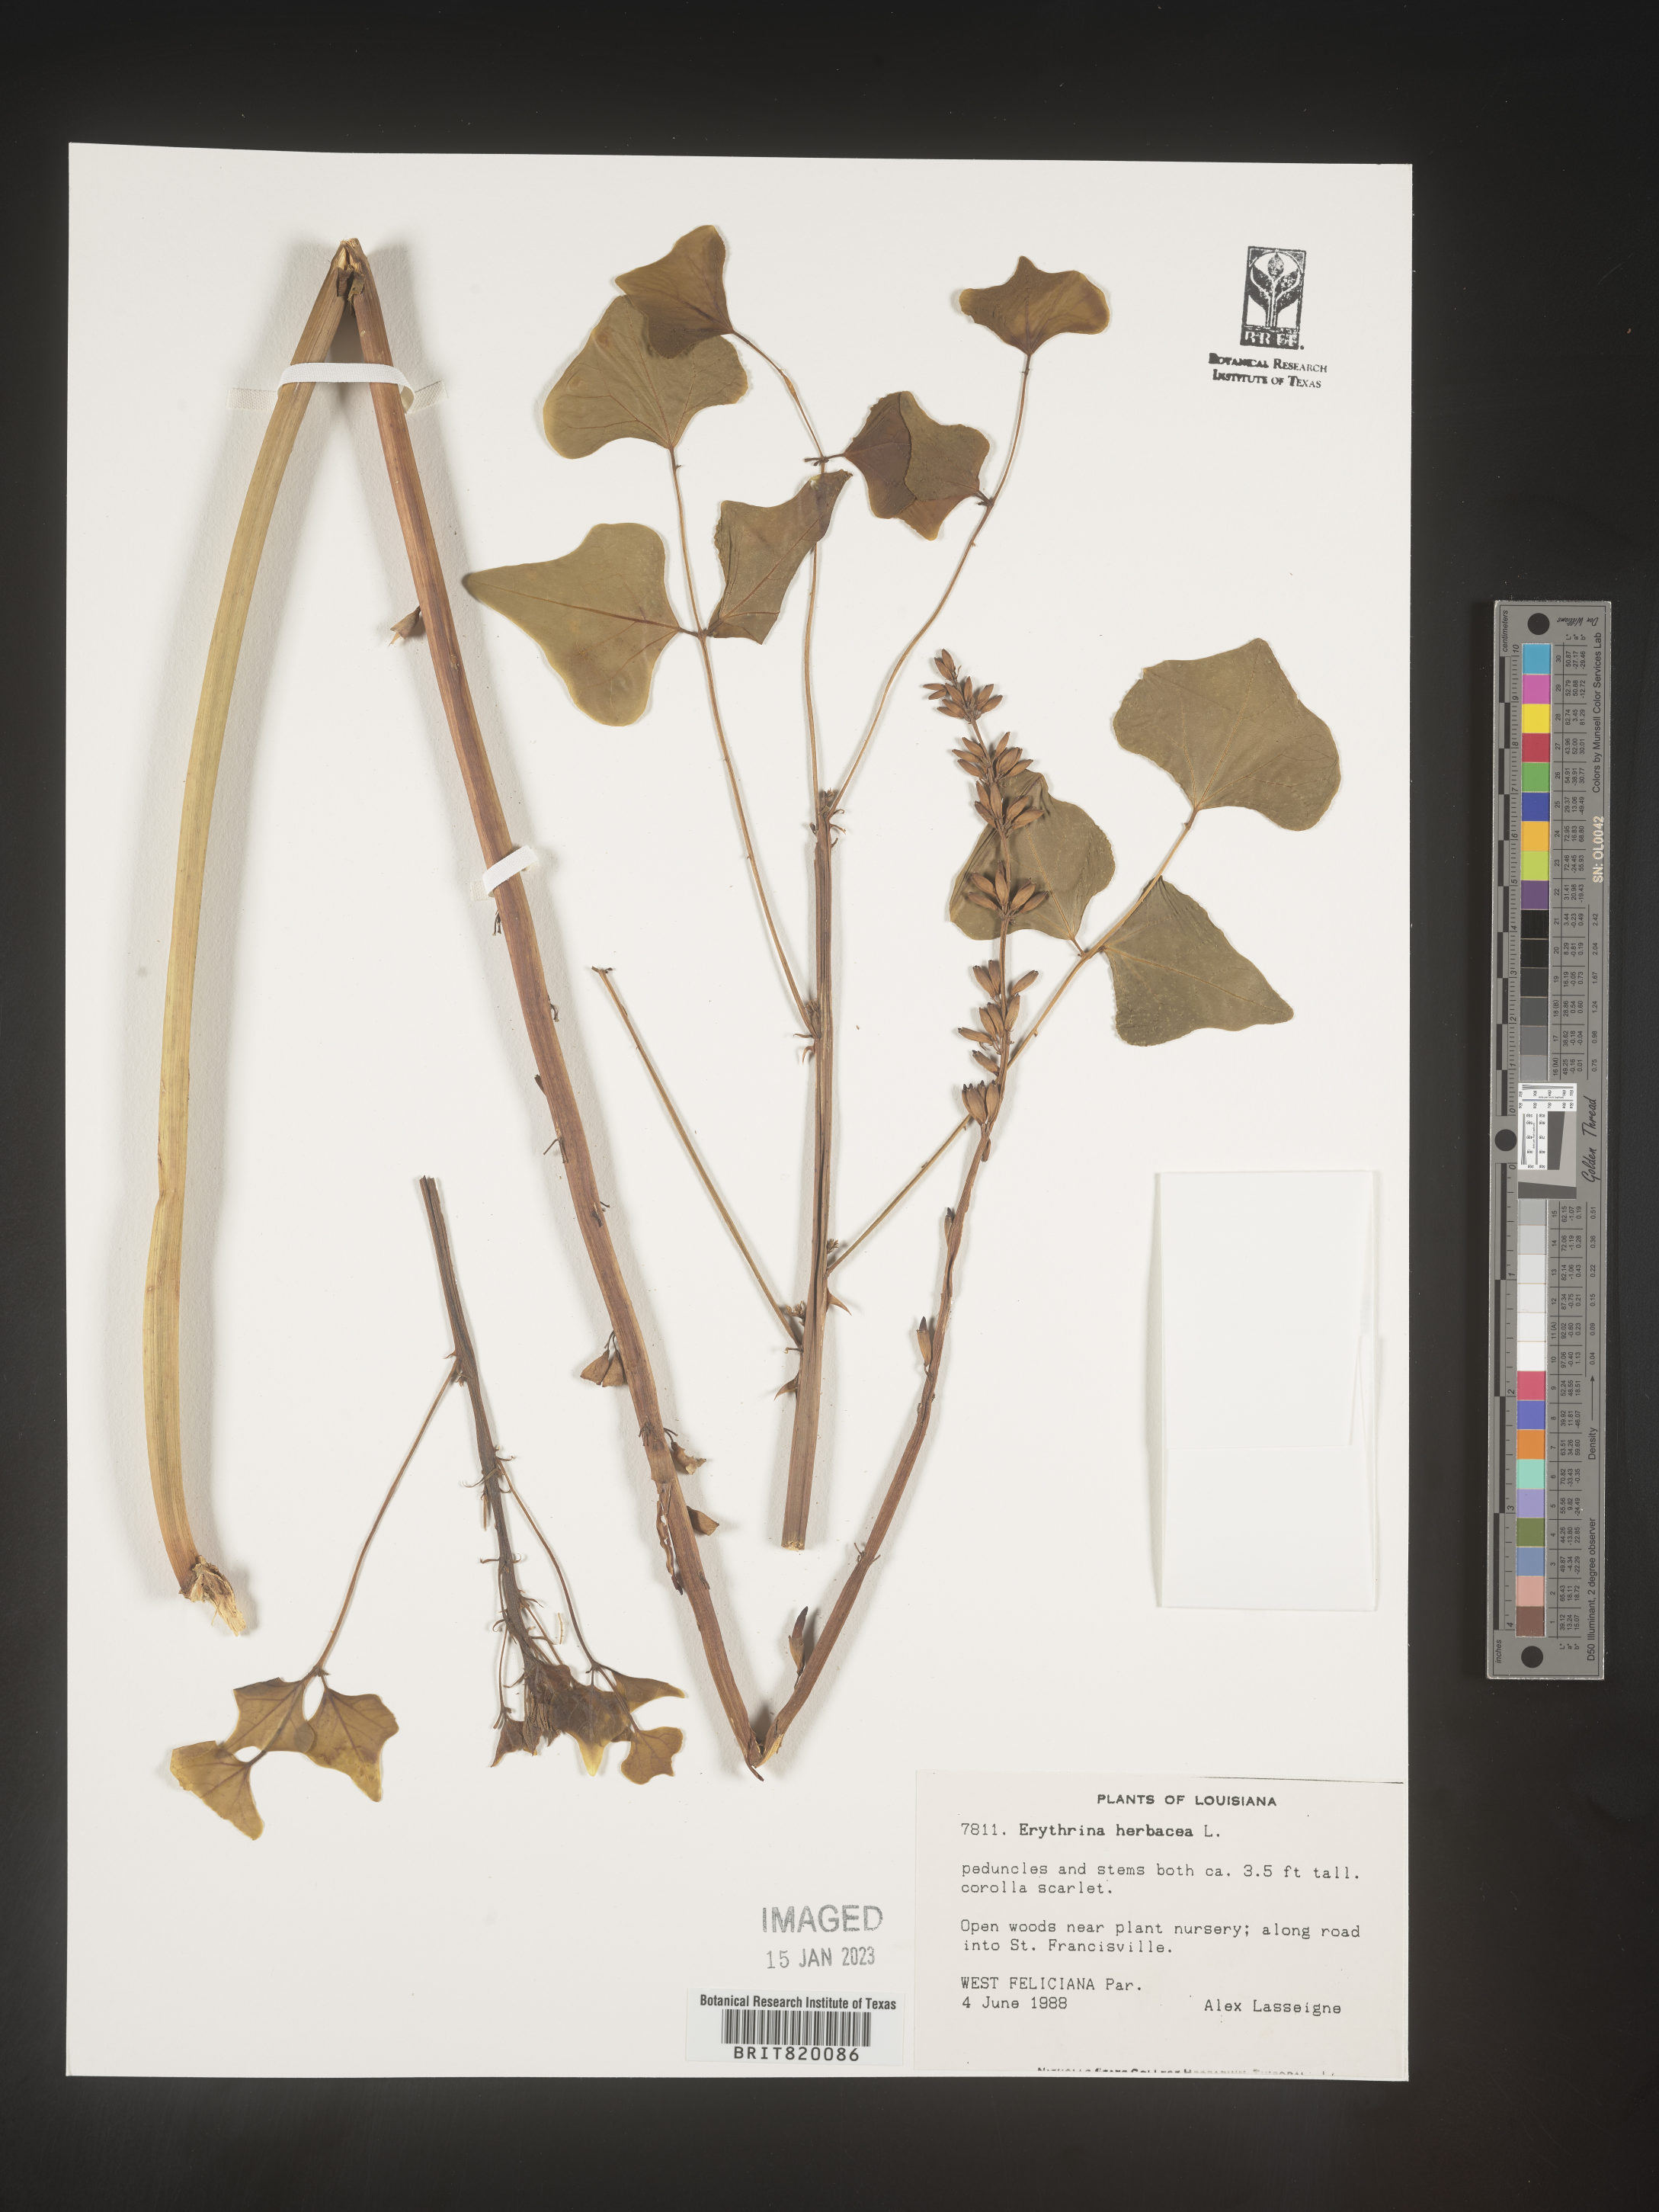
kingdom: Plantae
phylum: Tracheophyta
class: Magnoliopsida
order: Fabales
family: Fabaceae
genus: Erythrina
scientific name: Erythrina herbacea
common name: Coral-bean
